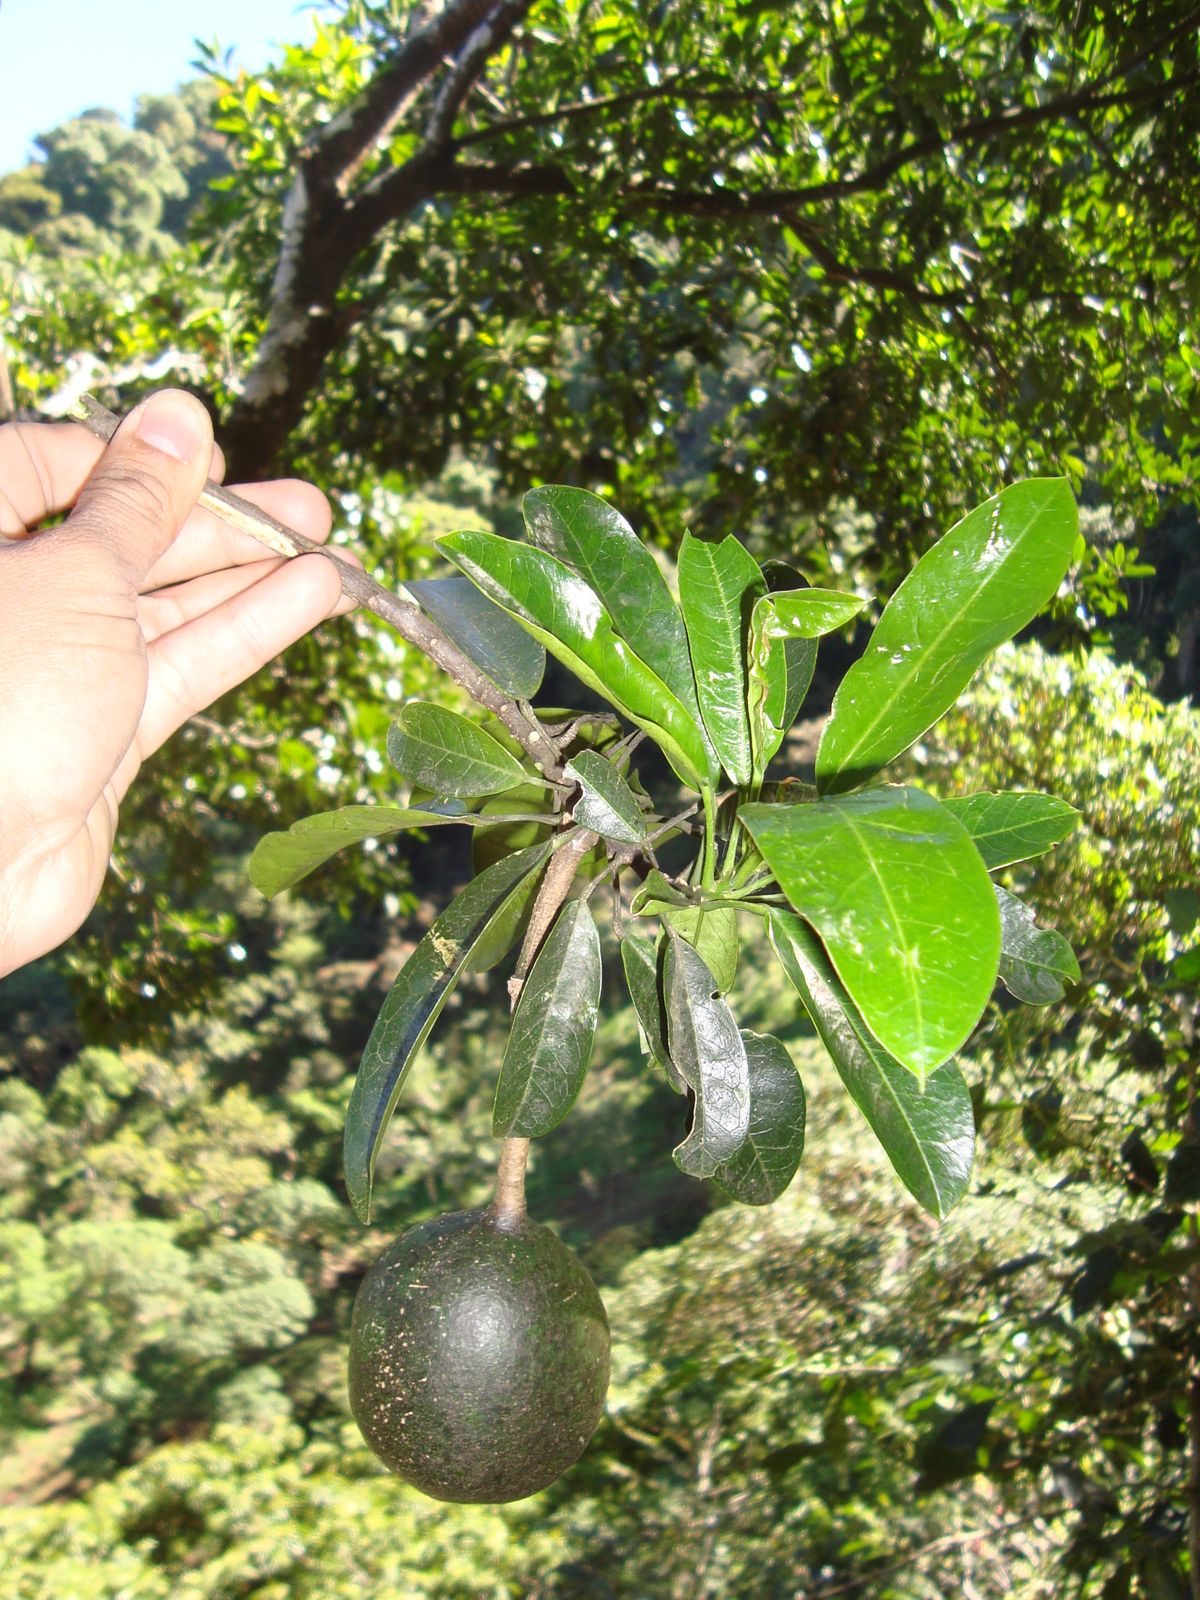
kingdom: Plantae
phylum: Tracheophyta
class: Magnoliopsida
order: Brassicales
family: Capparaceae
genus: Caphexandra
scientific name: Caphexandra heydeana
